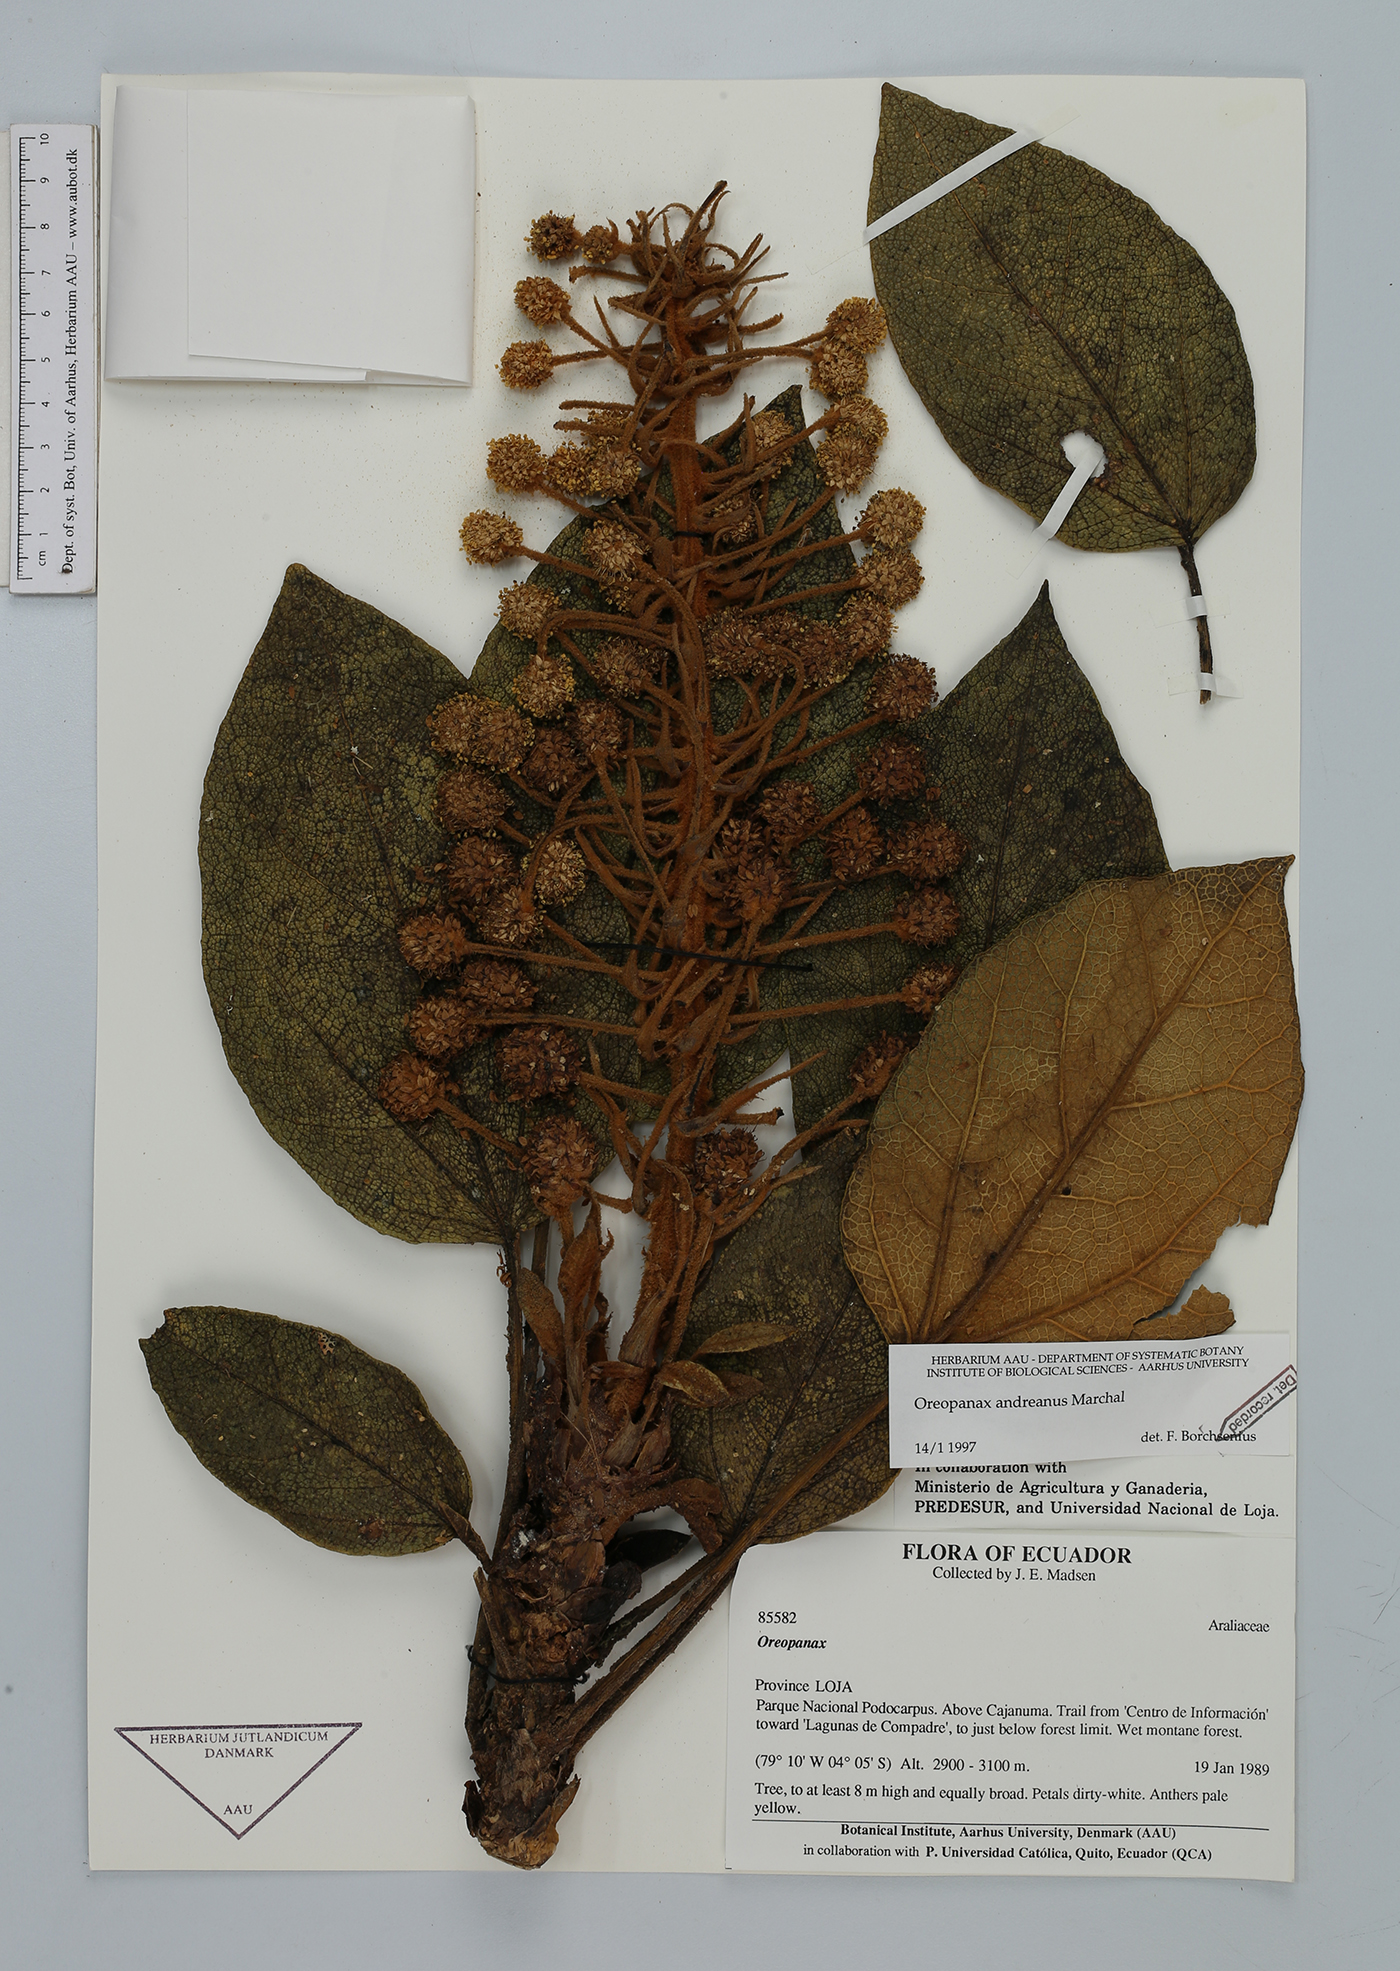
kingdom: Plantae
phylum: Tracheophyta
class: Magnoliopsida
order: Apiales
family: Araliaceae
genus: Oreopanax
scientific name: Oreopanax andreanus
